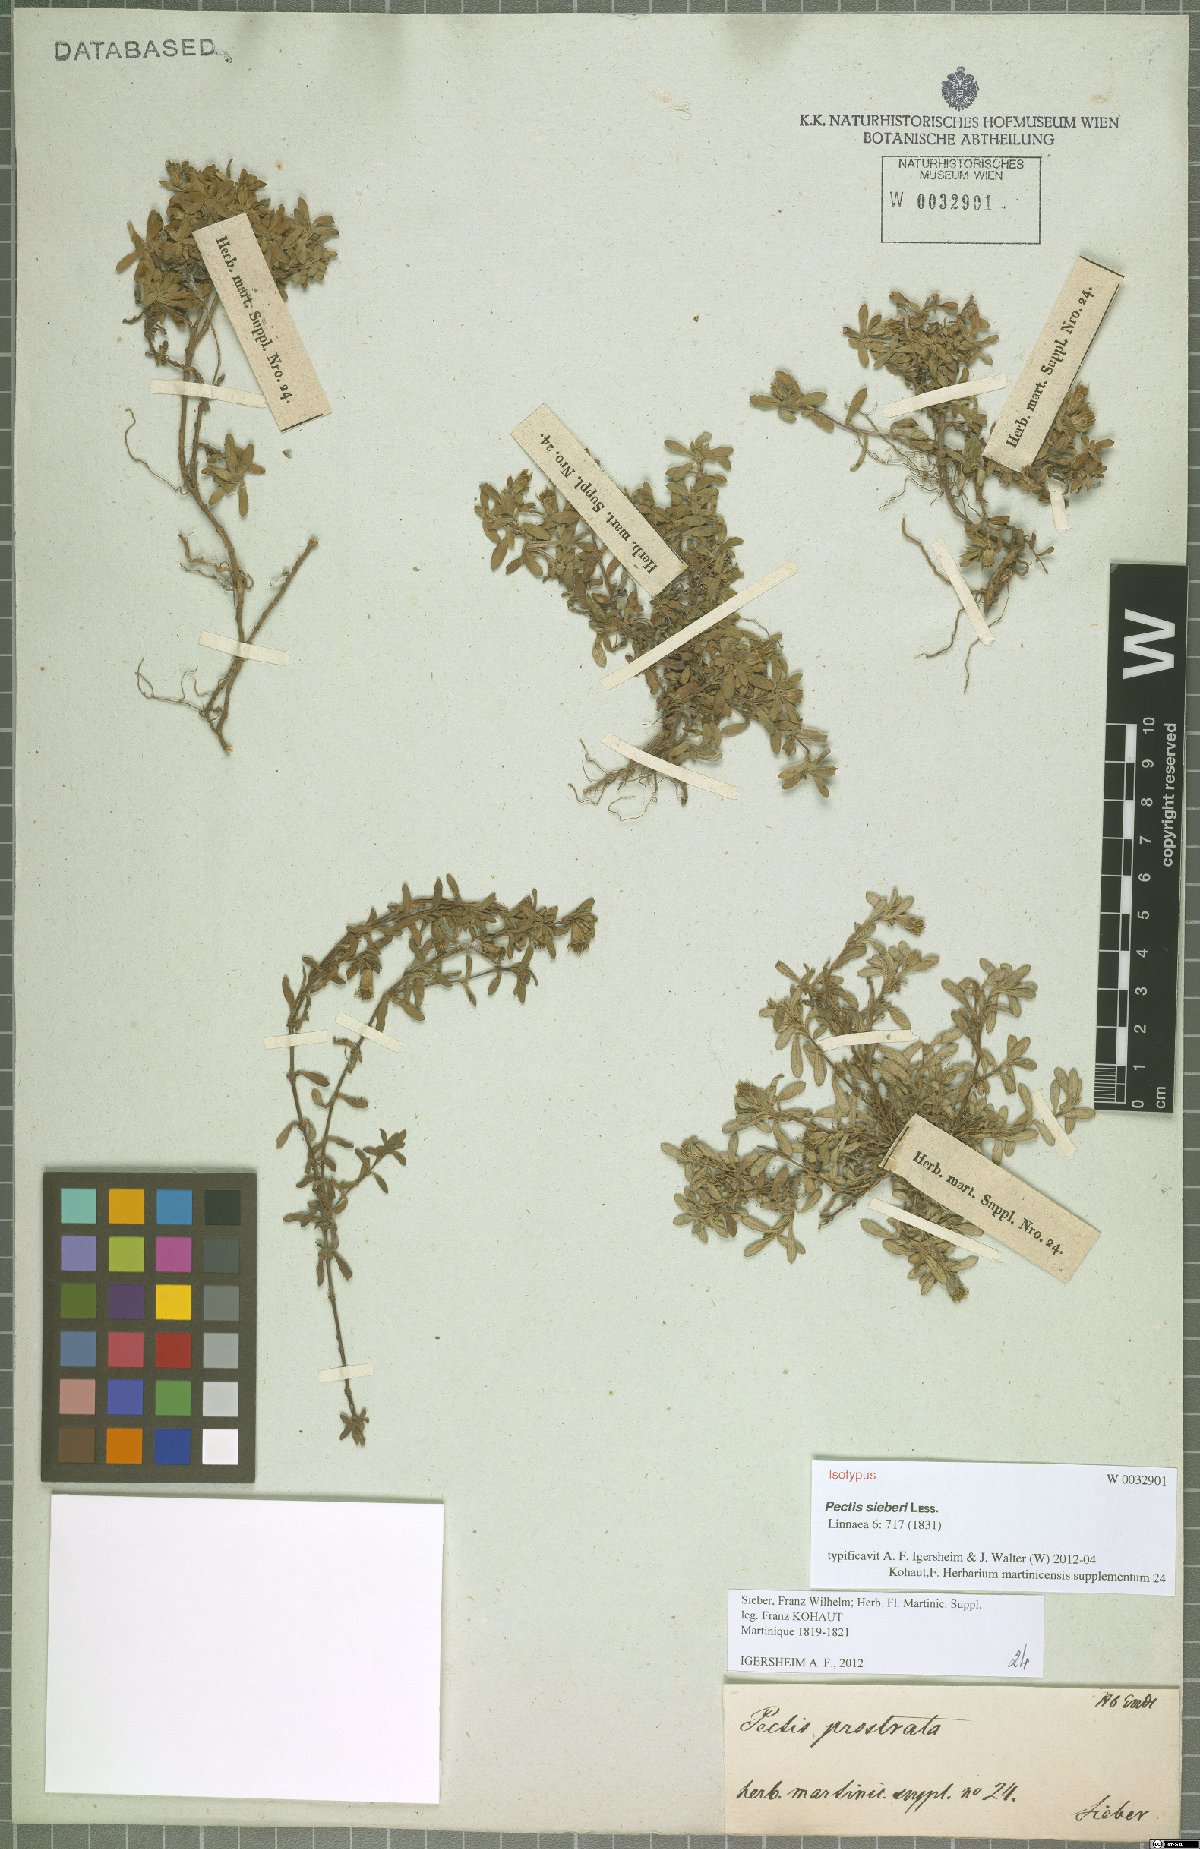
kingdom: Plantae
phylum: Tracheophyta
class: Magnoliopsida
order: Asterales
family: Asteraceae
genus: Pectis
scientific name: Pectis humifusa
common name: Yerba de san juan
